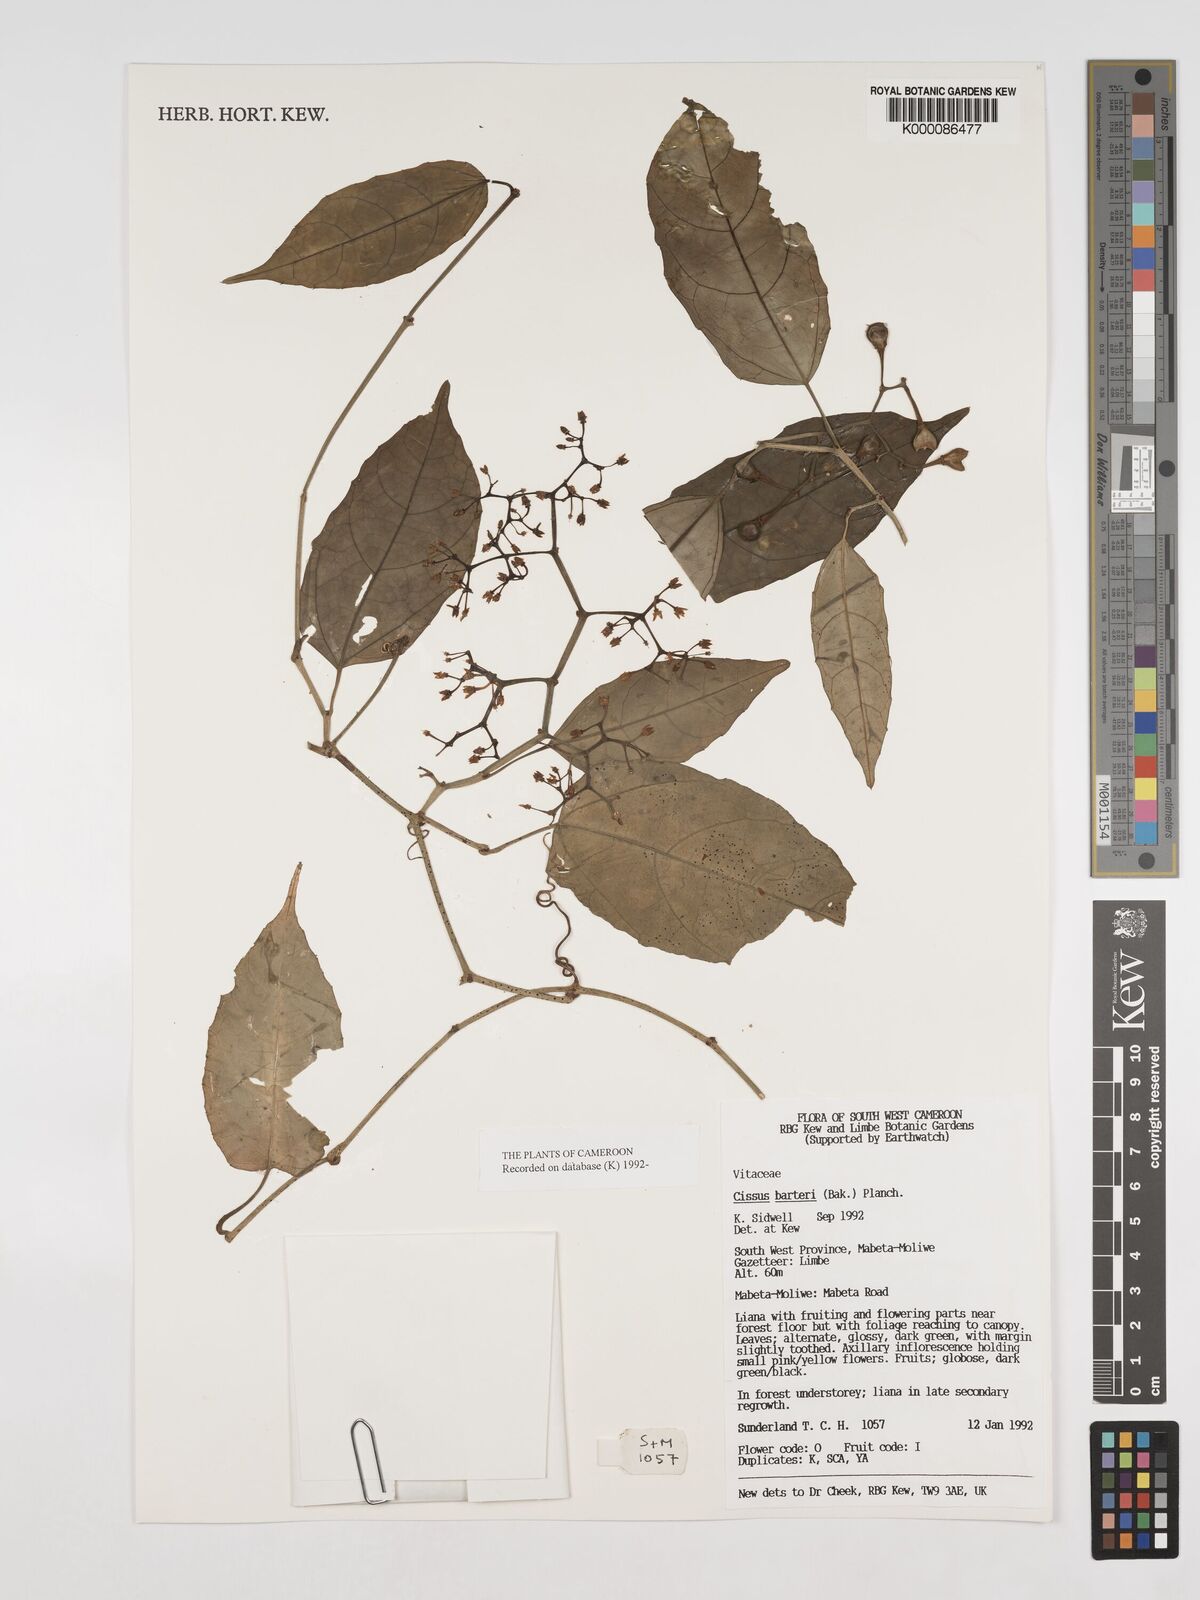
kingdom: Plantae
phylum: Tracheophyta
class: Magnoliopsida
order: Vitales
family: Vitaceae
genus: Cissus
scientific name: Cissus barteri
